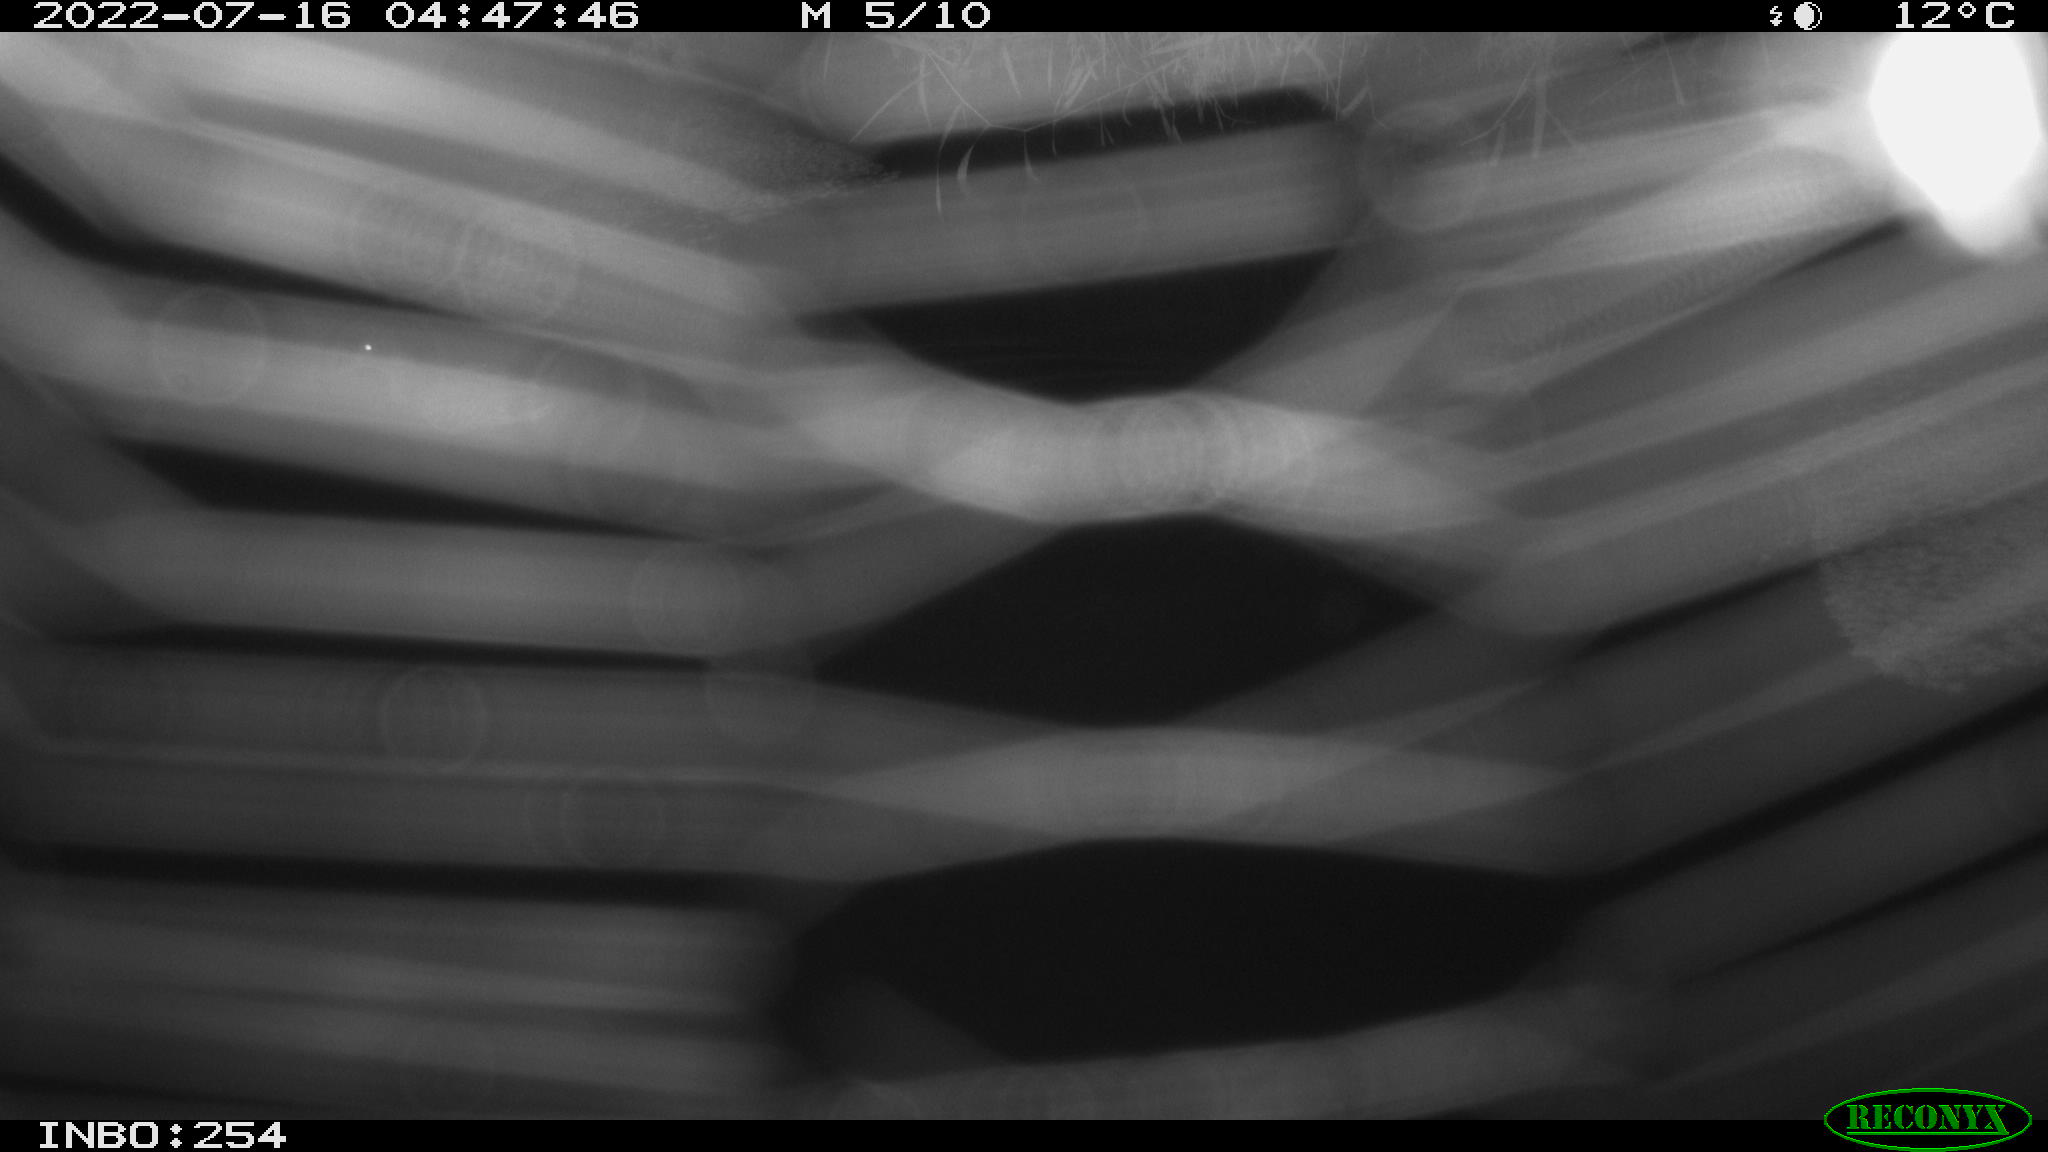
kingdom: Animalia
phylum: Chordata
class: Aves
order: Anseriformes
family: Anatidae
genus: Anas
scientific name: Anas platyrhynchos
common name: Mallard
